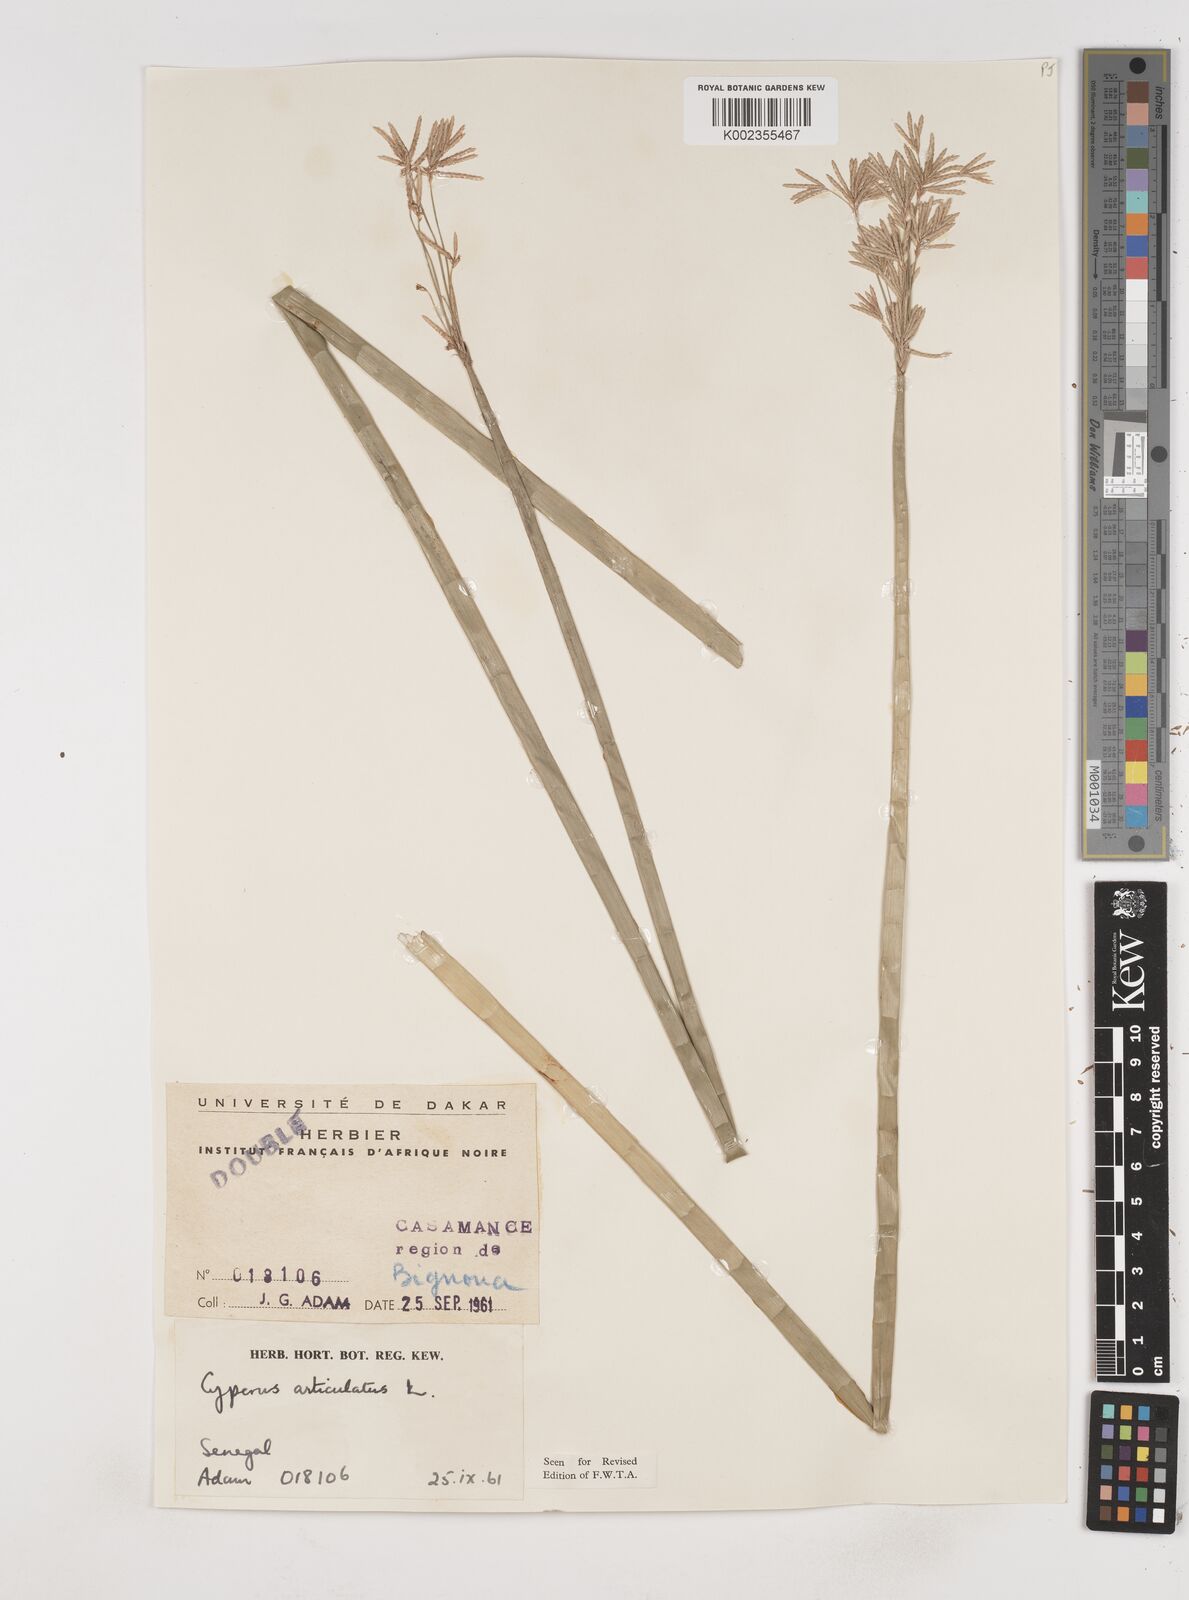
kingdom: Plantae
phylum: Tracheophyta
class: Liliopsida
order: Poales
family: Cyperaceae
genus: Cyperus
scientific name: Cyperus articulatus
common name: Jointed flatsedge
